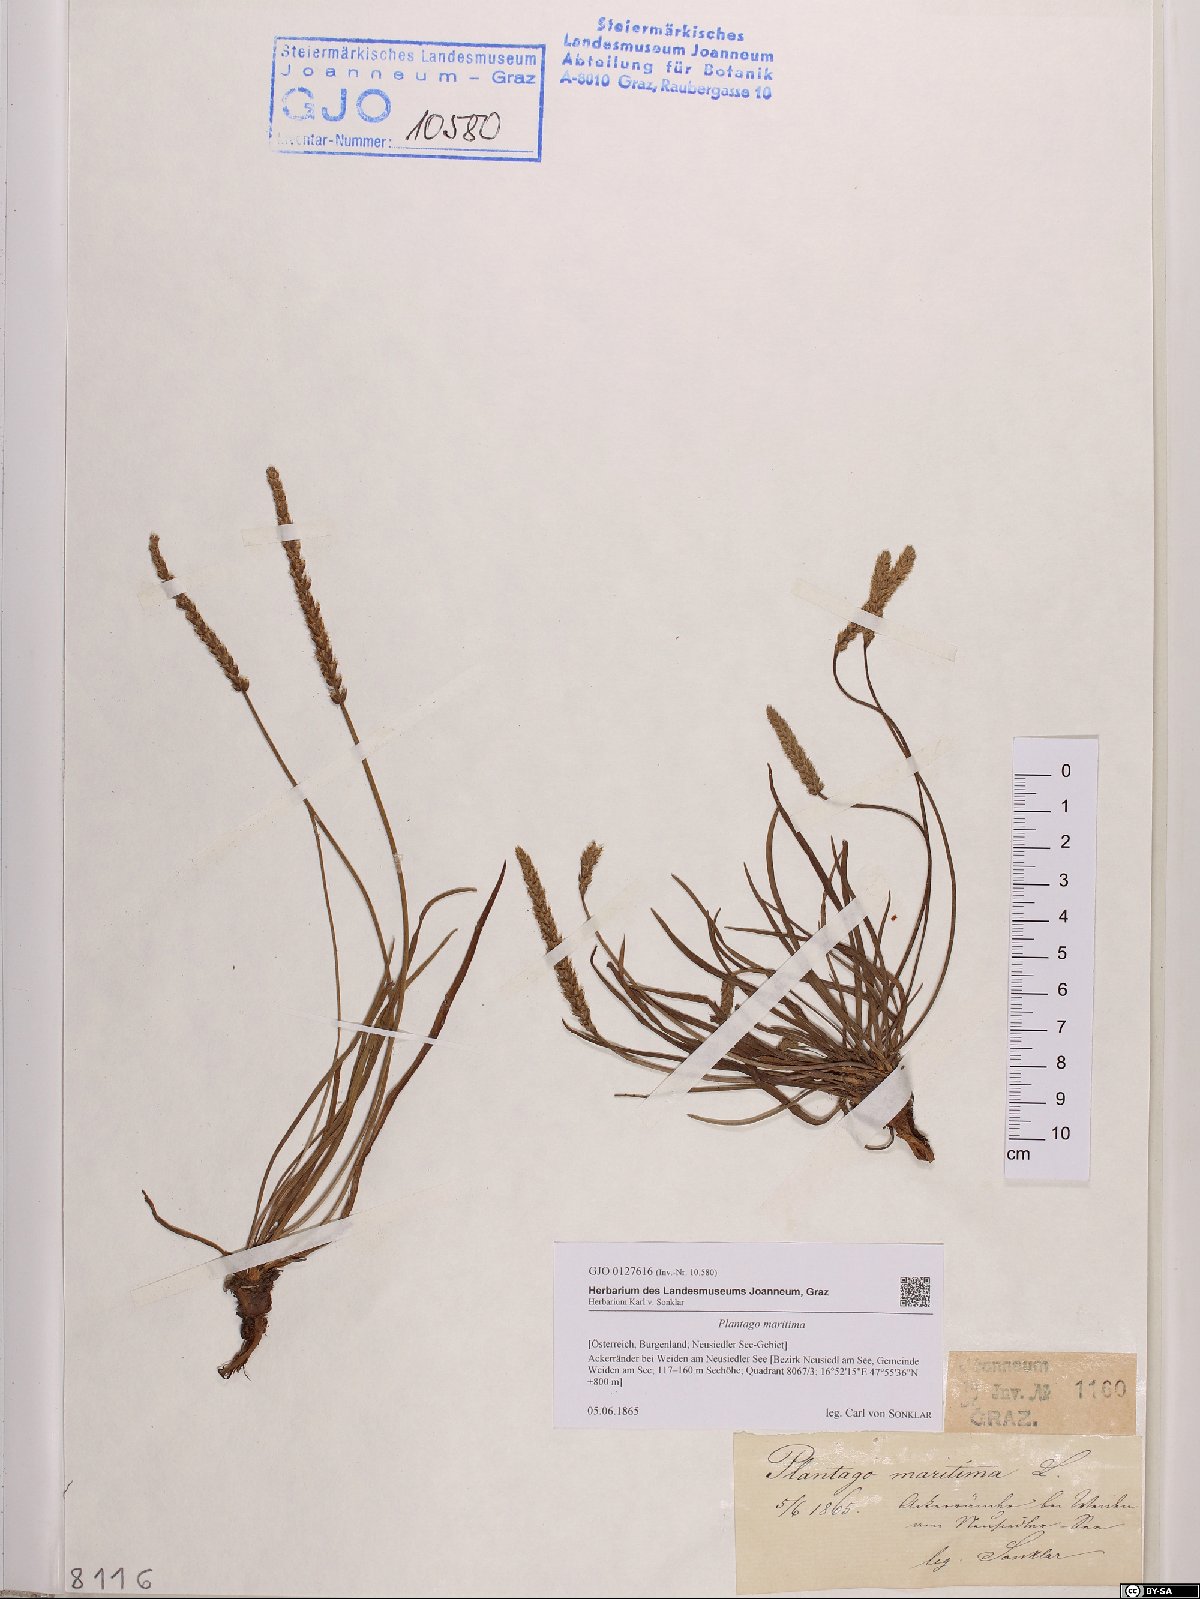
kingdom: Plantae
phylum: Tracheophyta
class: Magnoliopsida
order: Lamiales
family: Plantaginaceae
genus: Plantago
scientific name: Plantago maritima
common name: Sea plantain
